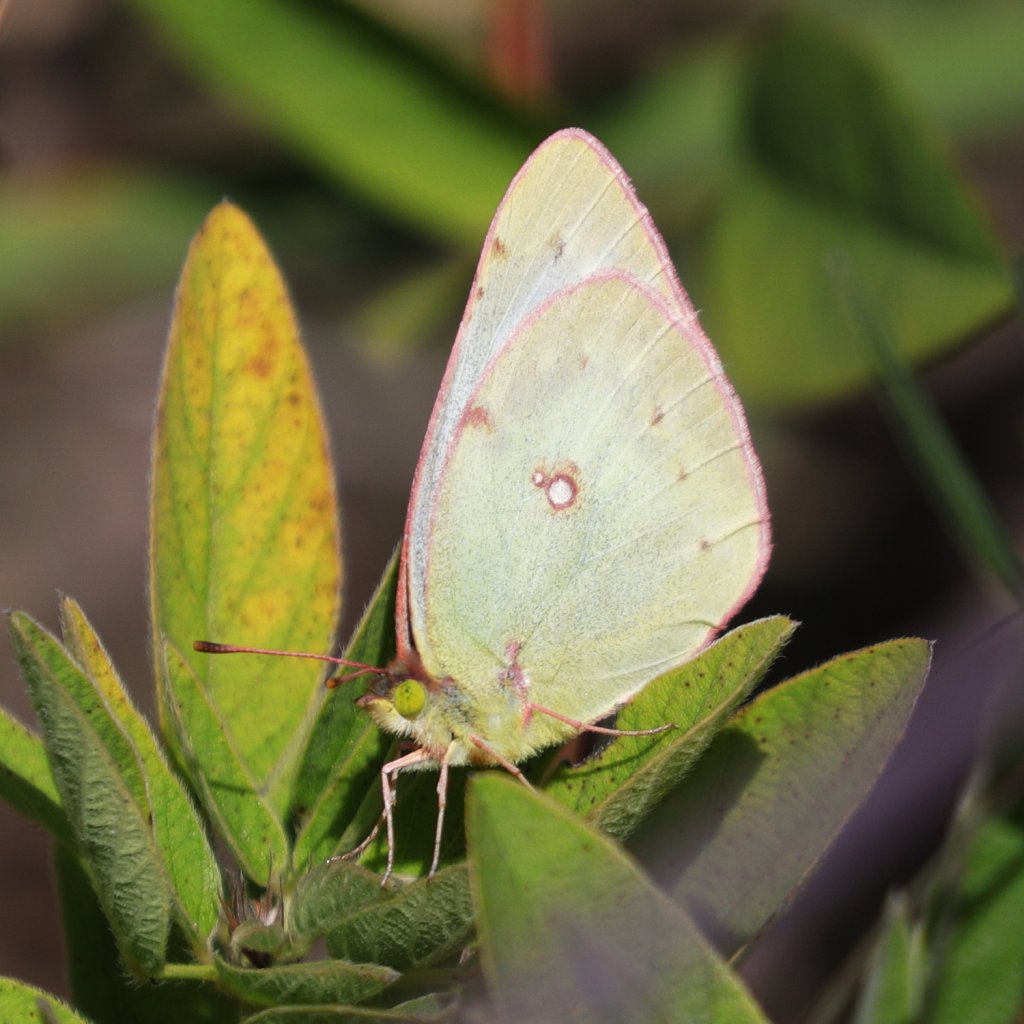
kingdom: Animalia
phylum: Arthropoda
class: Insecta
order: Lepidoptera
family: Pieridae
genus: Colias
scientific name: Colias philodice
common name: Clouded Sulphur
